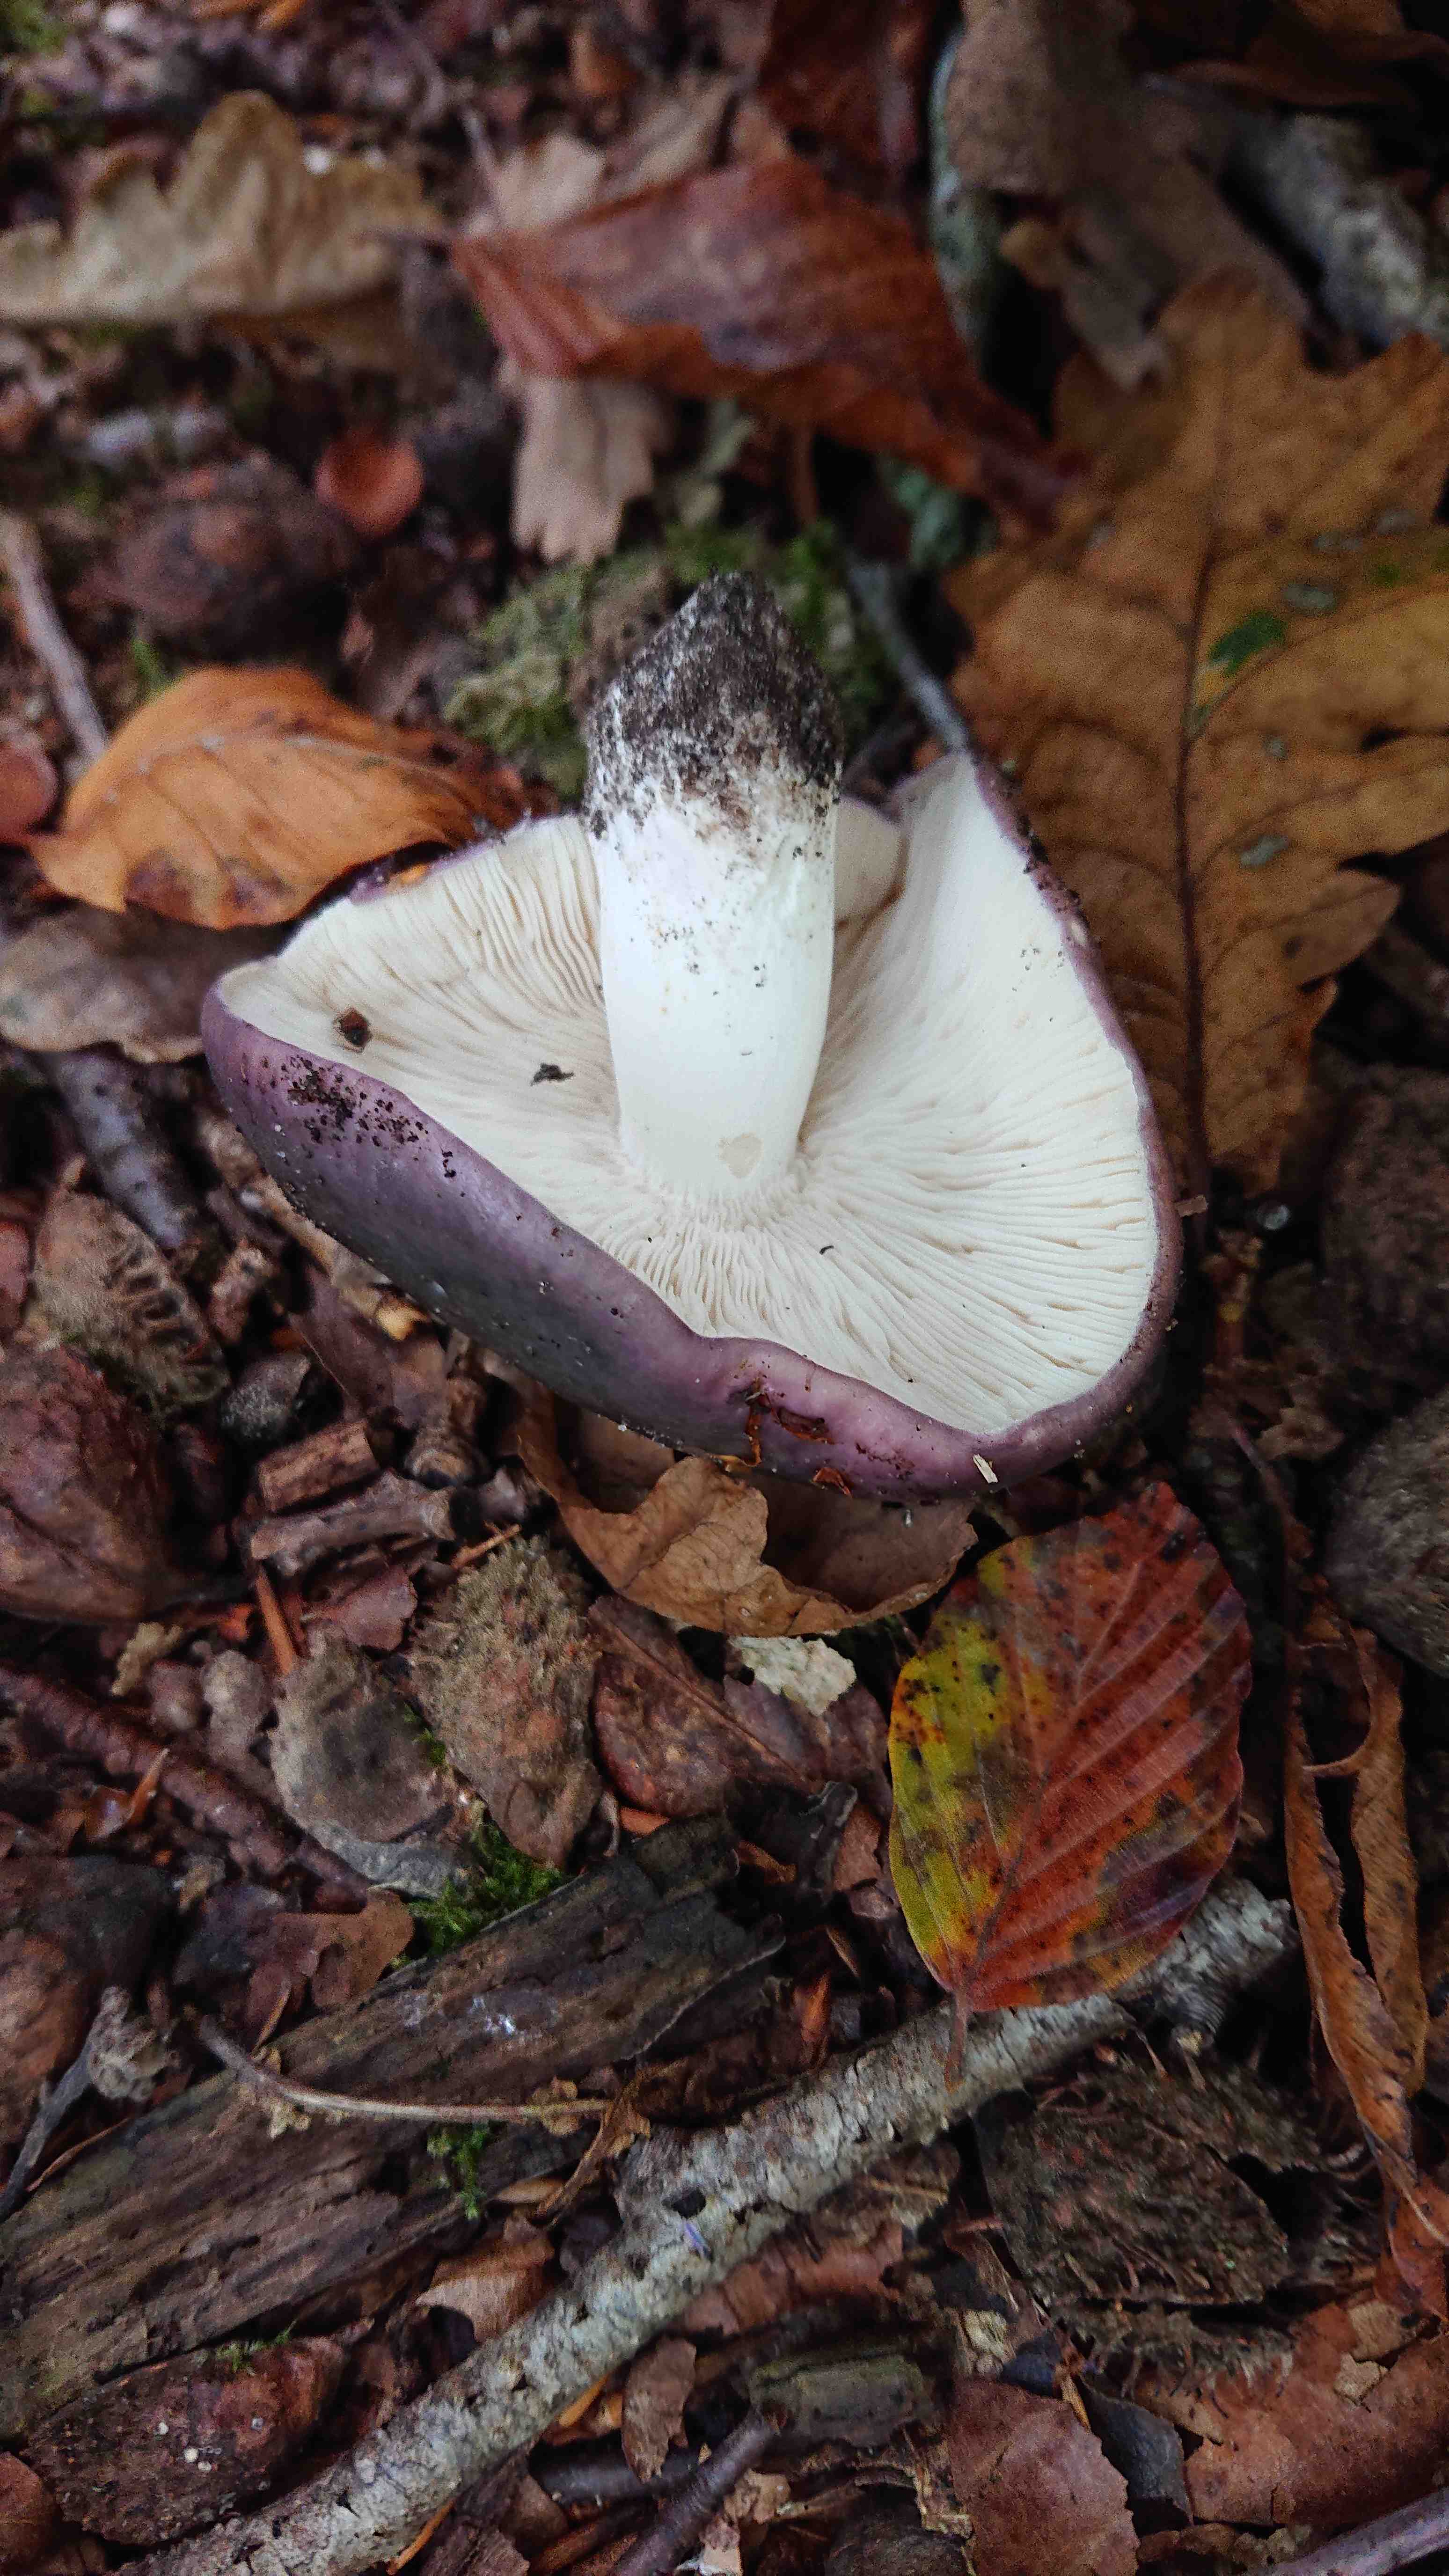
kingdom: Fungi
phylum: Basidiomycota
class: Agaricomycetes
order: Russulales
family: Russulaceae
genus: Russula
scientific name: Russula cyanoxantha
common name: broget skørhat
